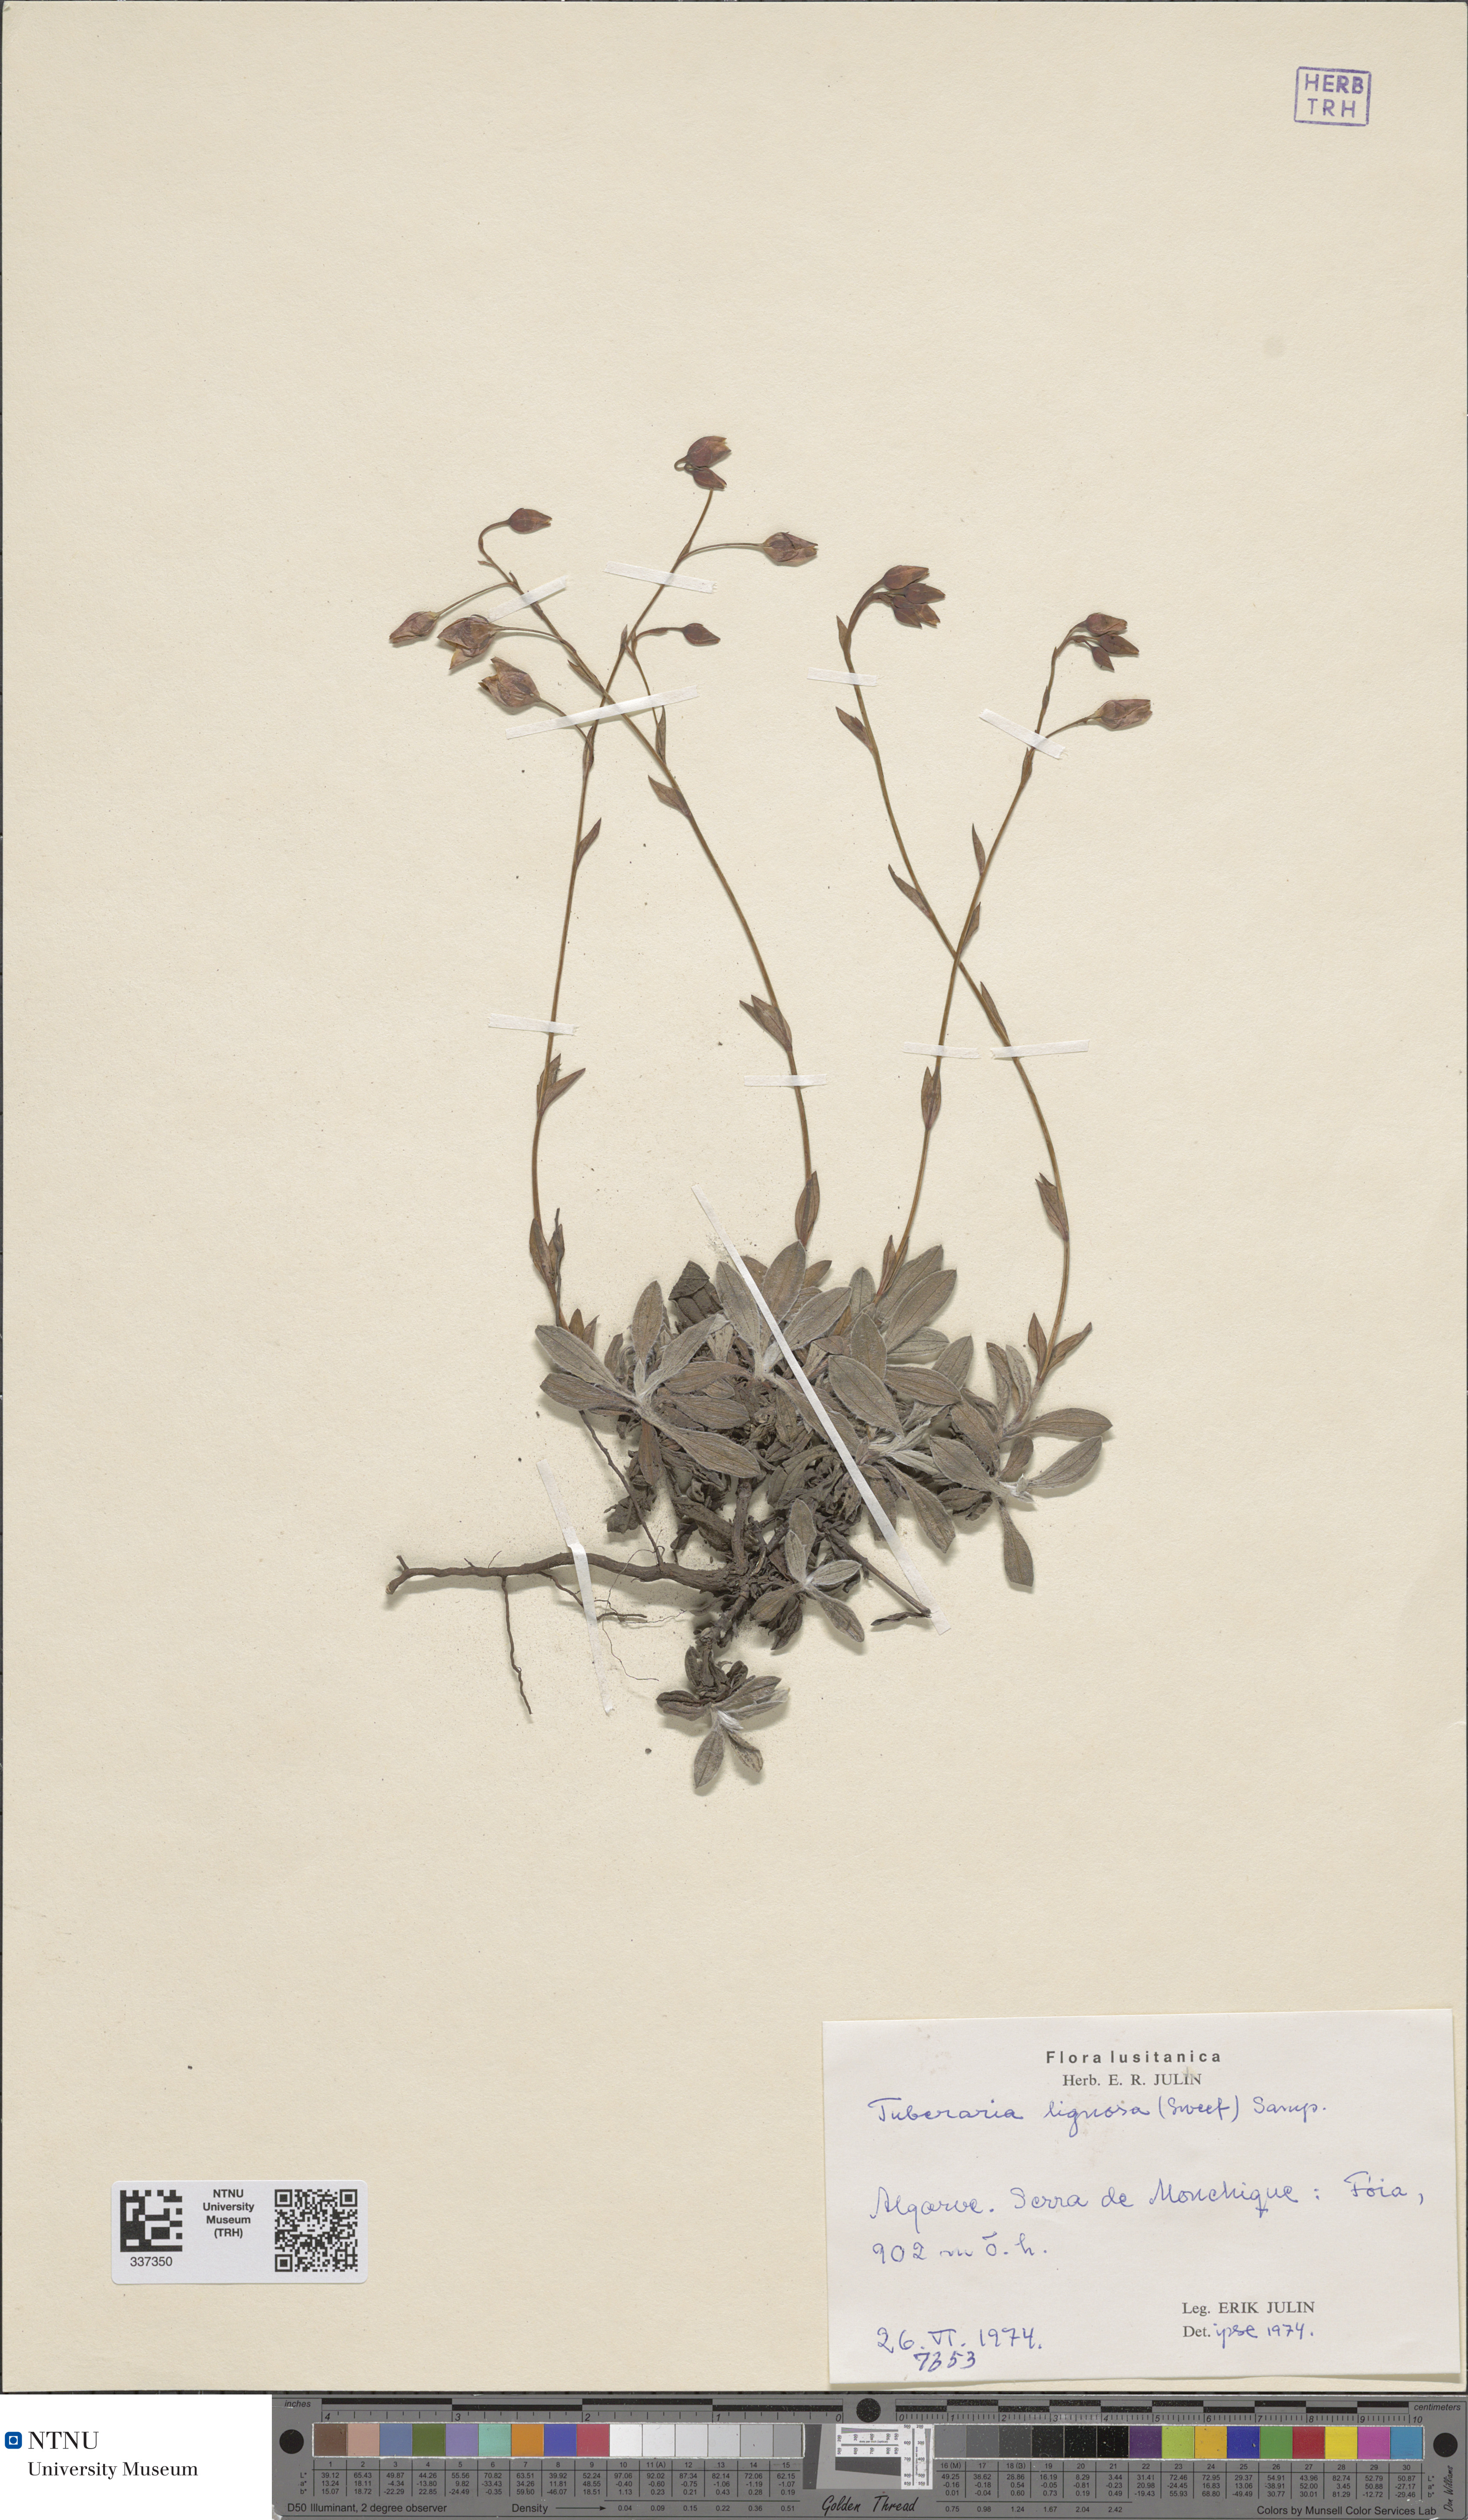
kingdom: Plantae
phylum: Tracheophyta
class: Magnoliopsida
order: Malvales
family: Cistaceae
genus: Tuberaria
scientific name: Tuberaria lignosa
